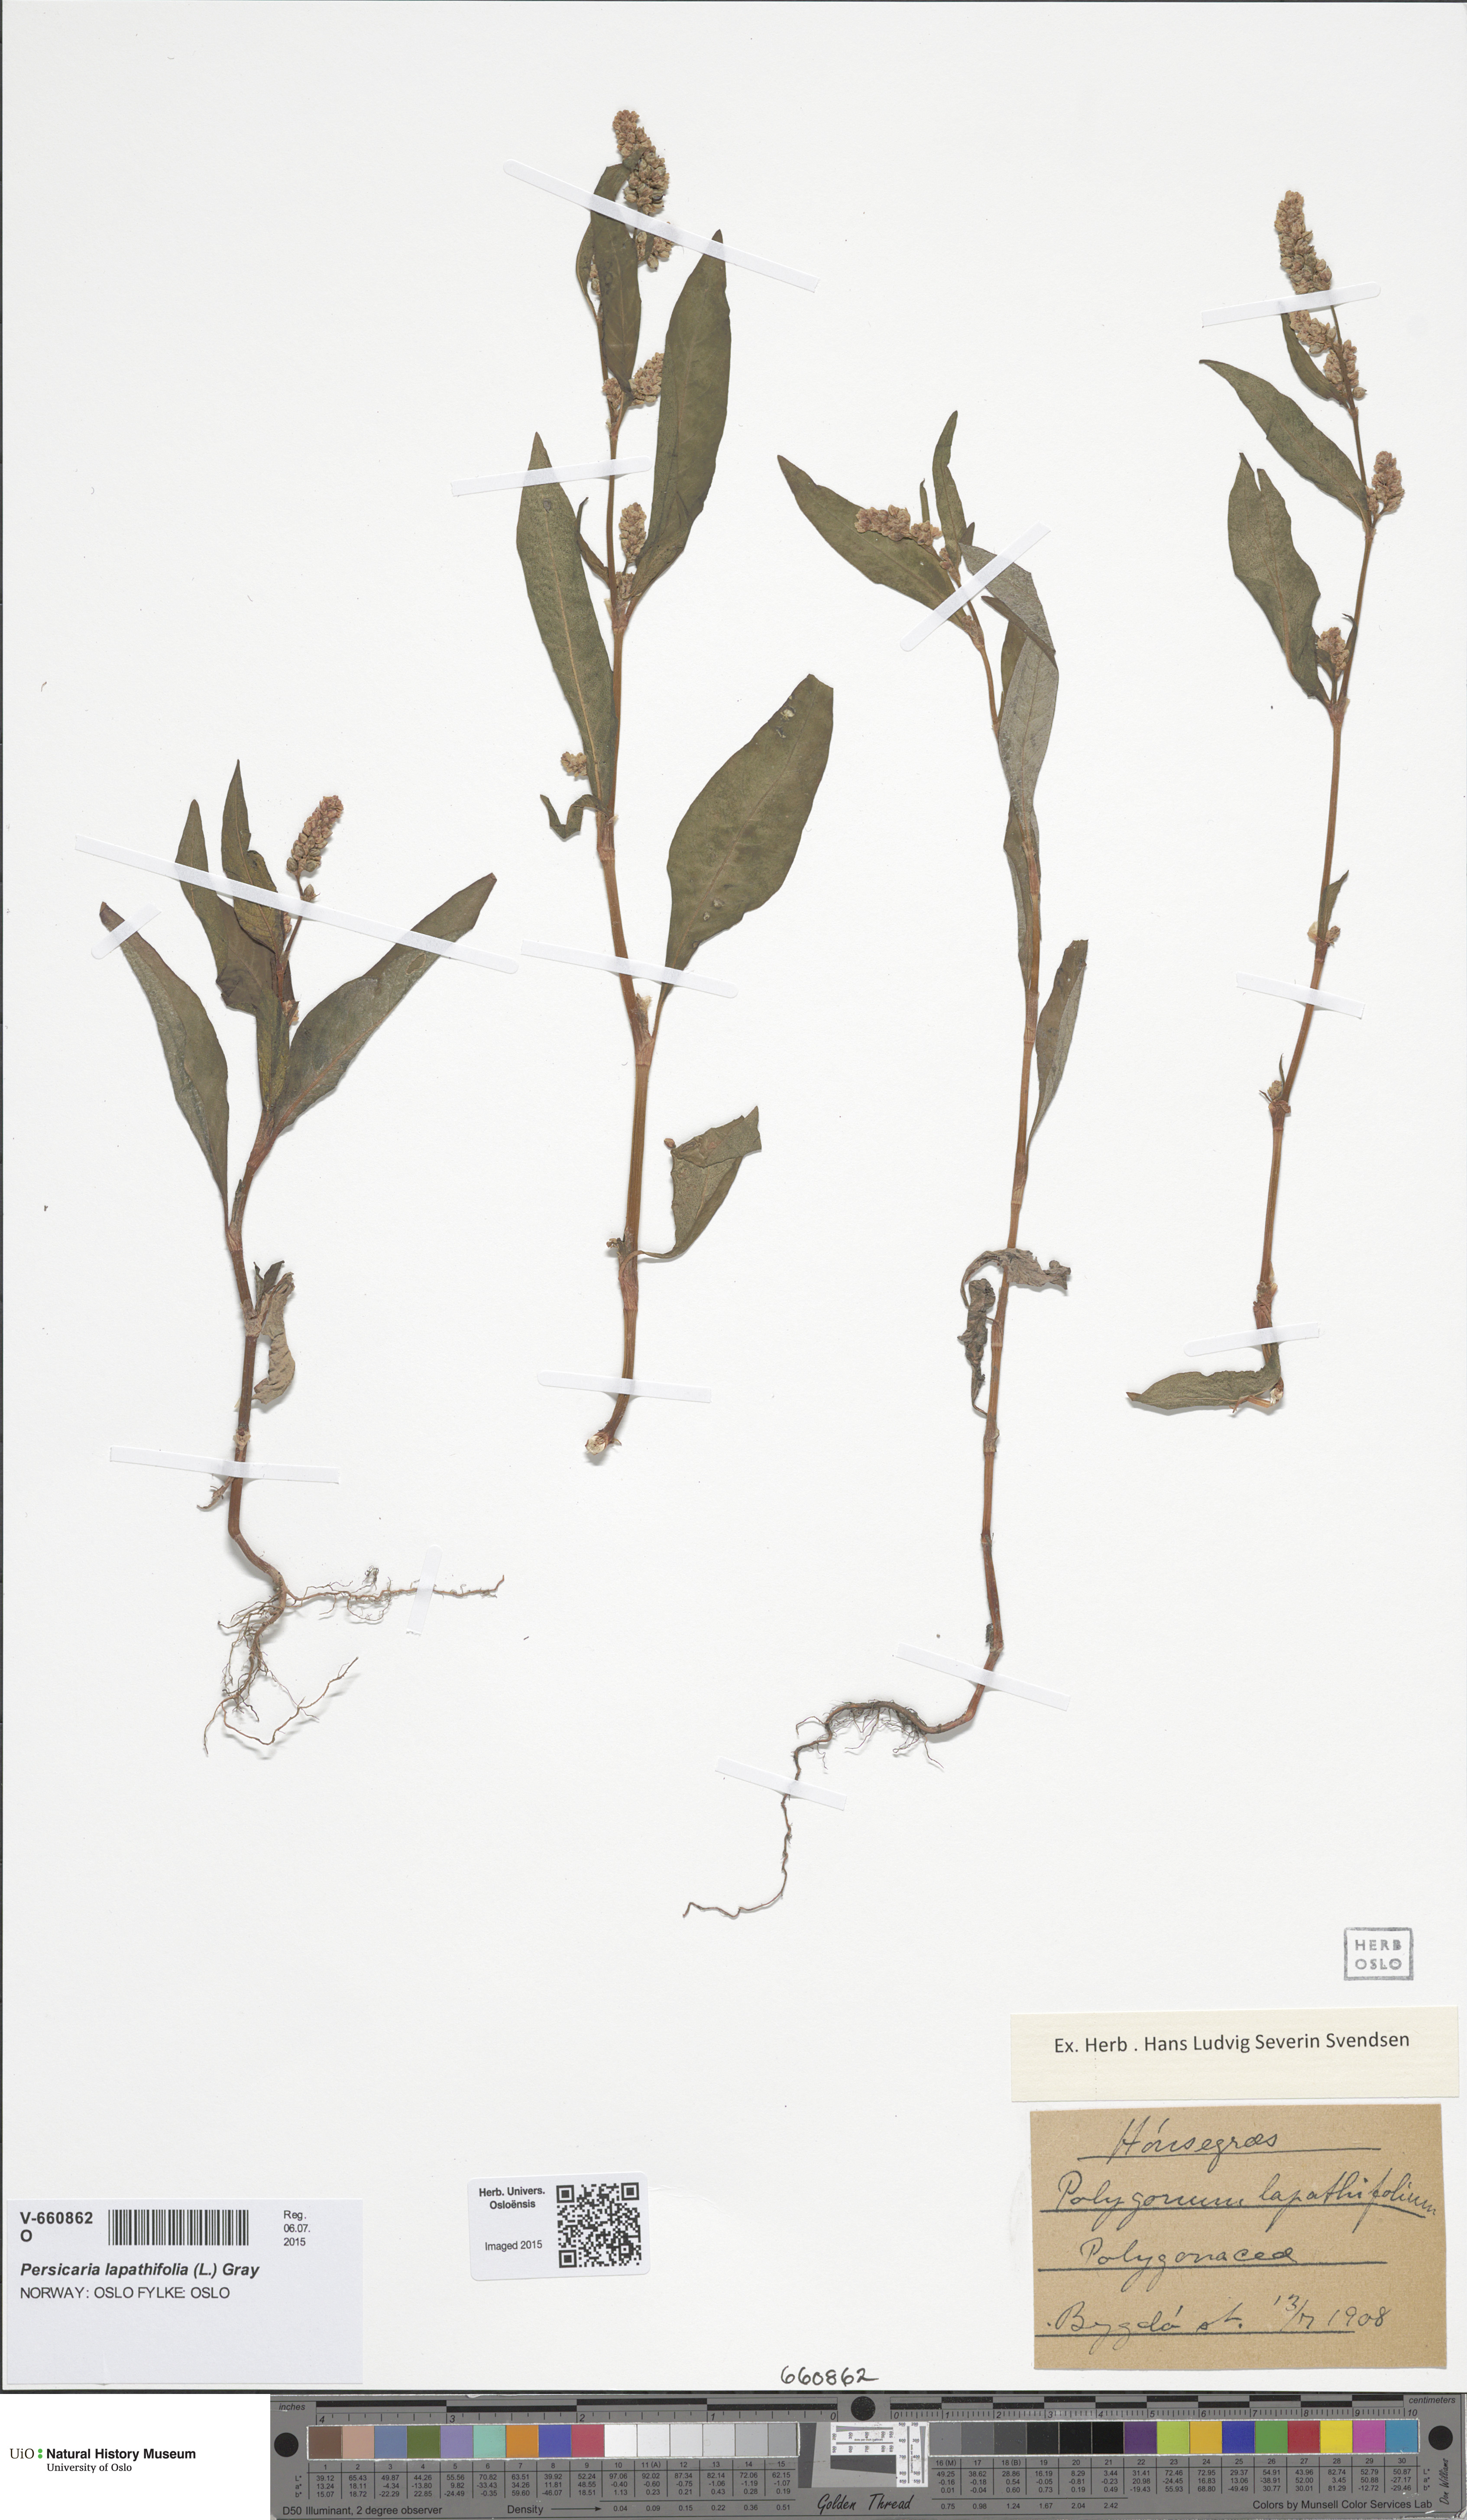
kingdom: Plantae
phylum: Tracheophyta
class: Magnoliopsida
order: Caryophyllales
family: Polygonaceae
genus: Persicaria
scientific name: Persicaria lapathifolia
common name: Curlytop knotweed
